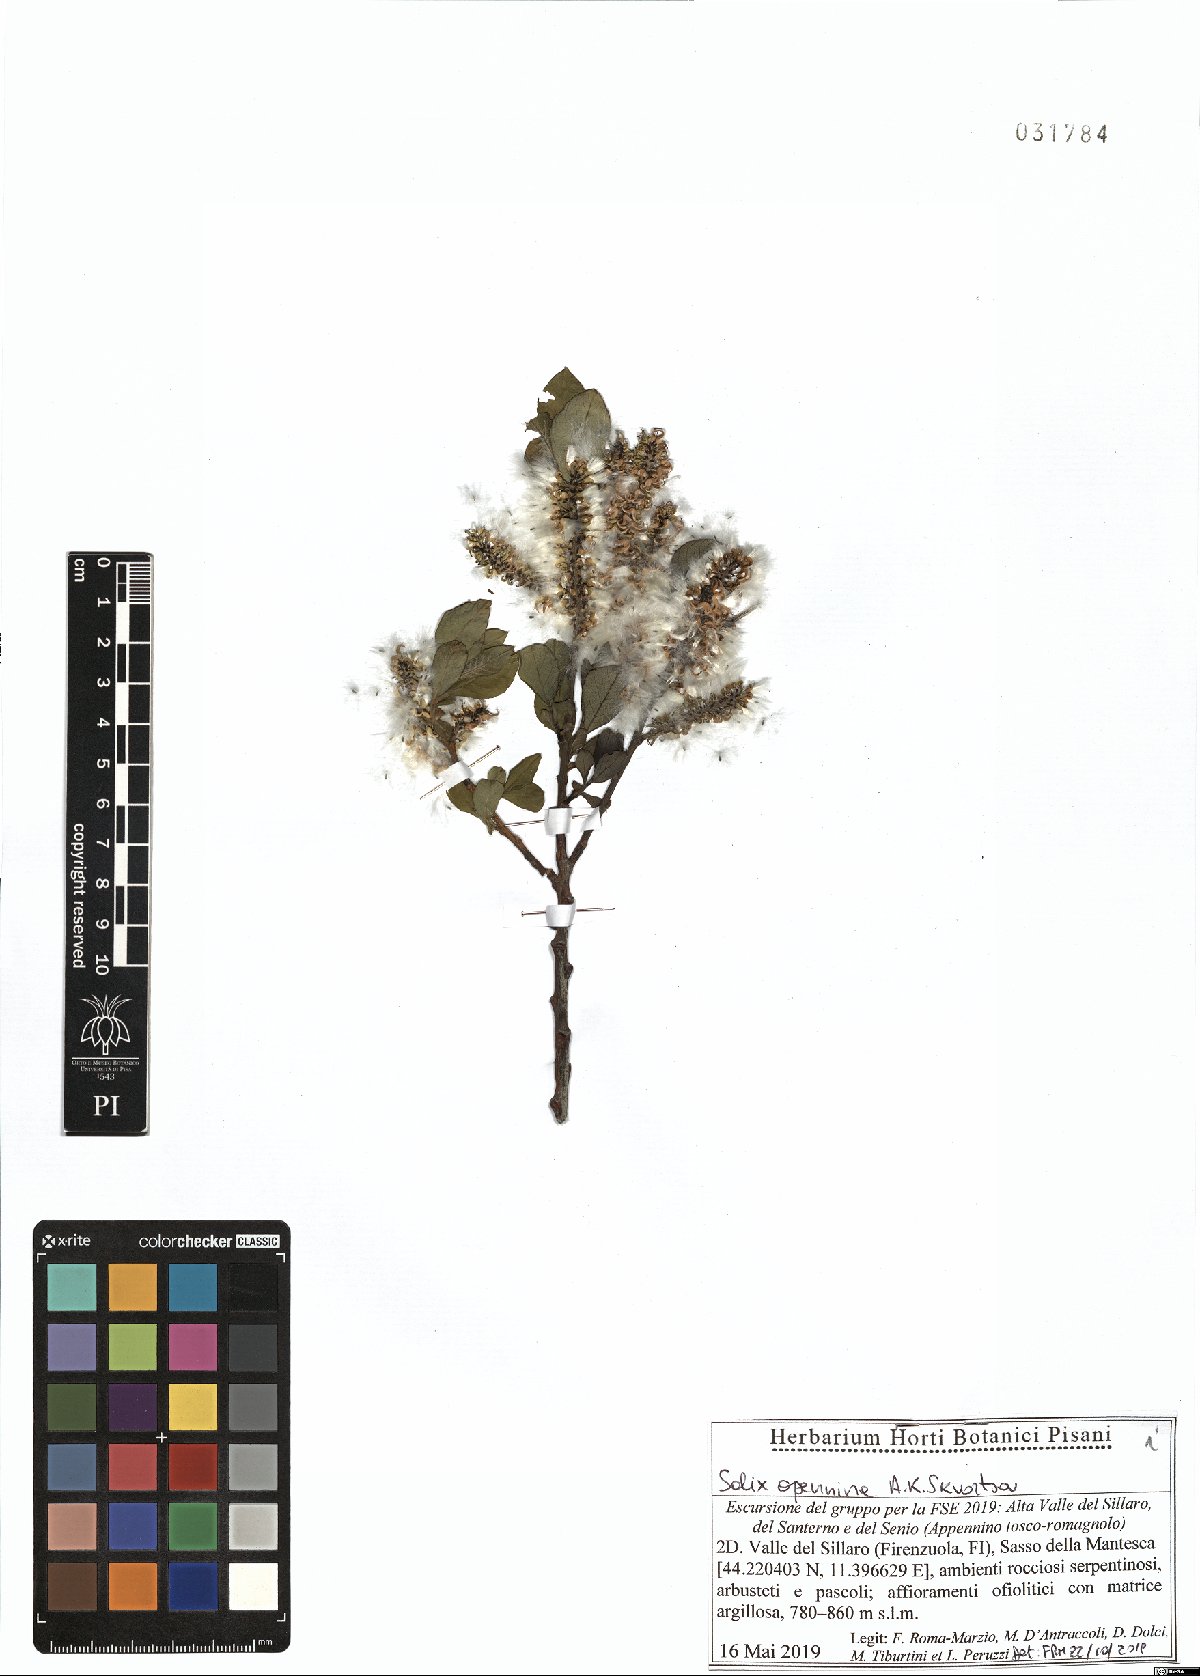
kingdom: Plantae
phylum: Tracheophyta
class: Magnoliopsida
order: Malpighiales
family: Salicaceae
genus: Salix
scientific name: Salix apennina
